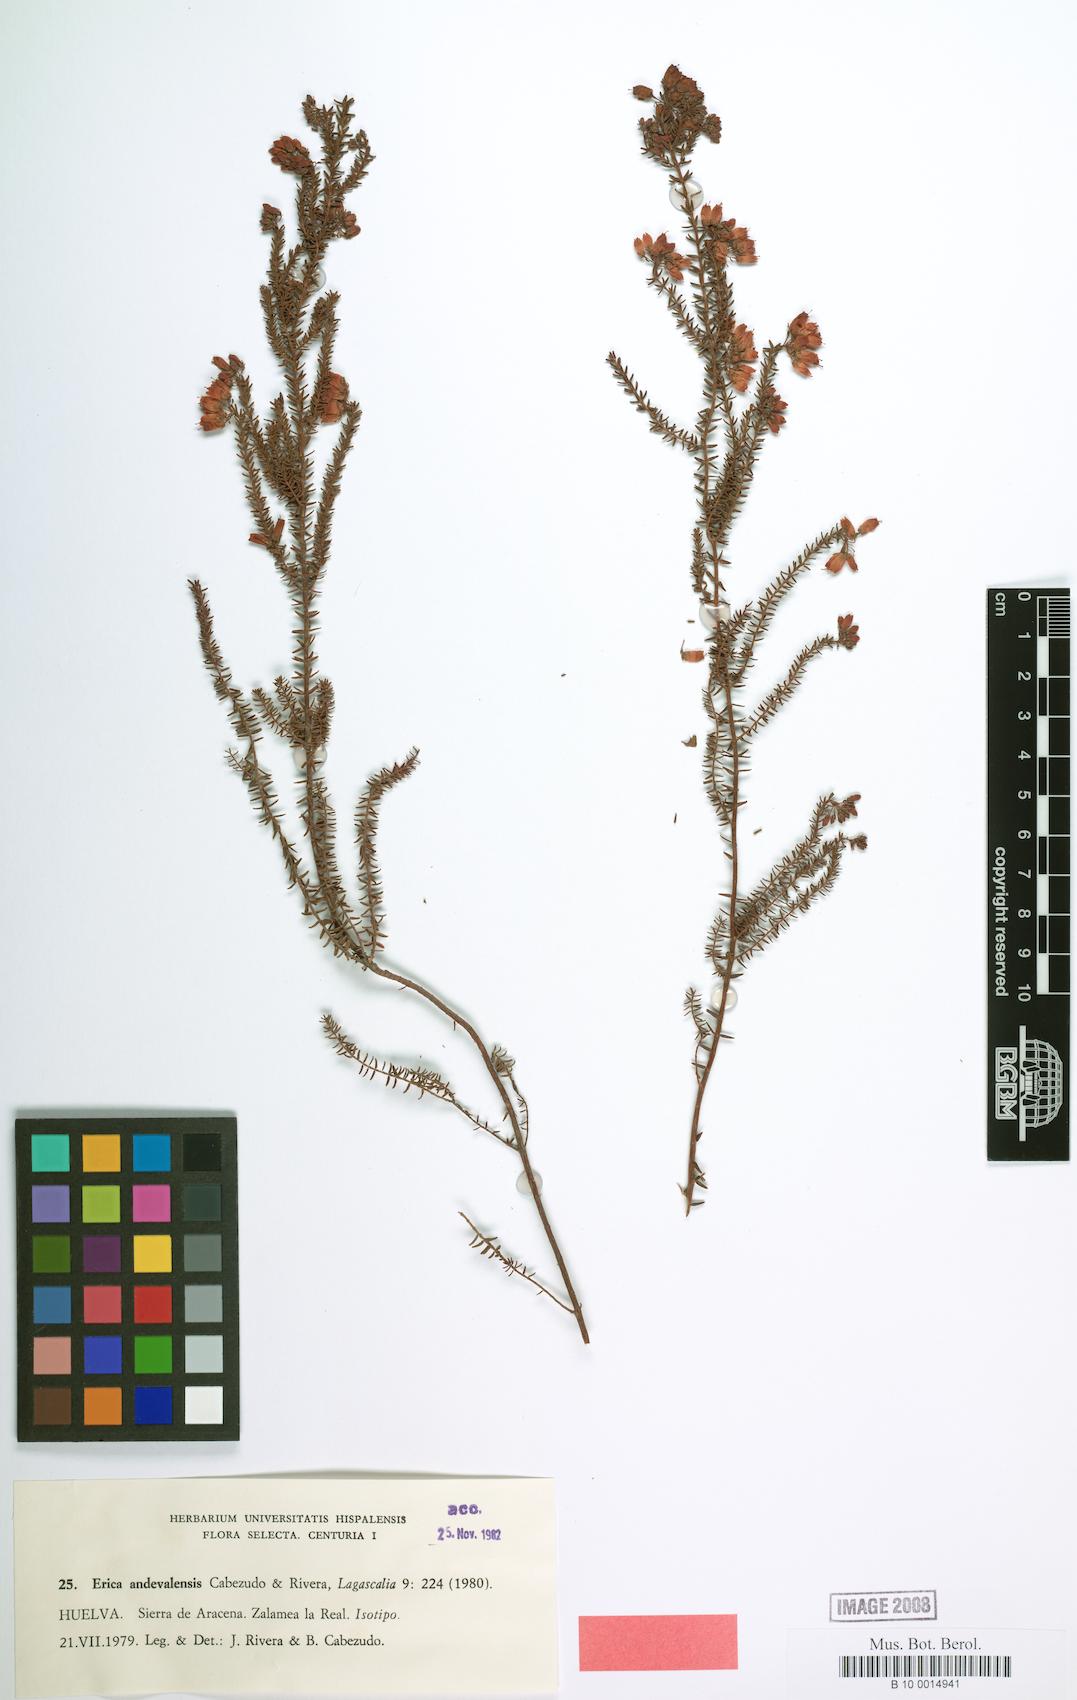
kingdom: Plantae
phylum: Tracheophyta
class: Magnoliopsida
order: Ericales
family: Ericaceae
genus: Erica
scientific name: Erica mackayana
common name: Mackay's heath
